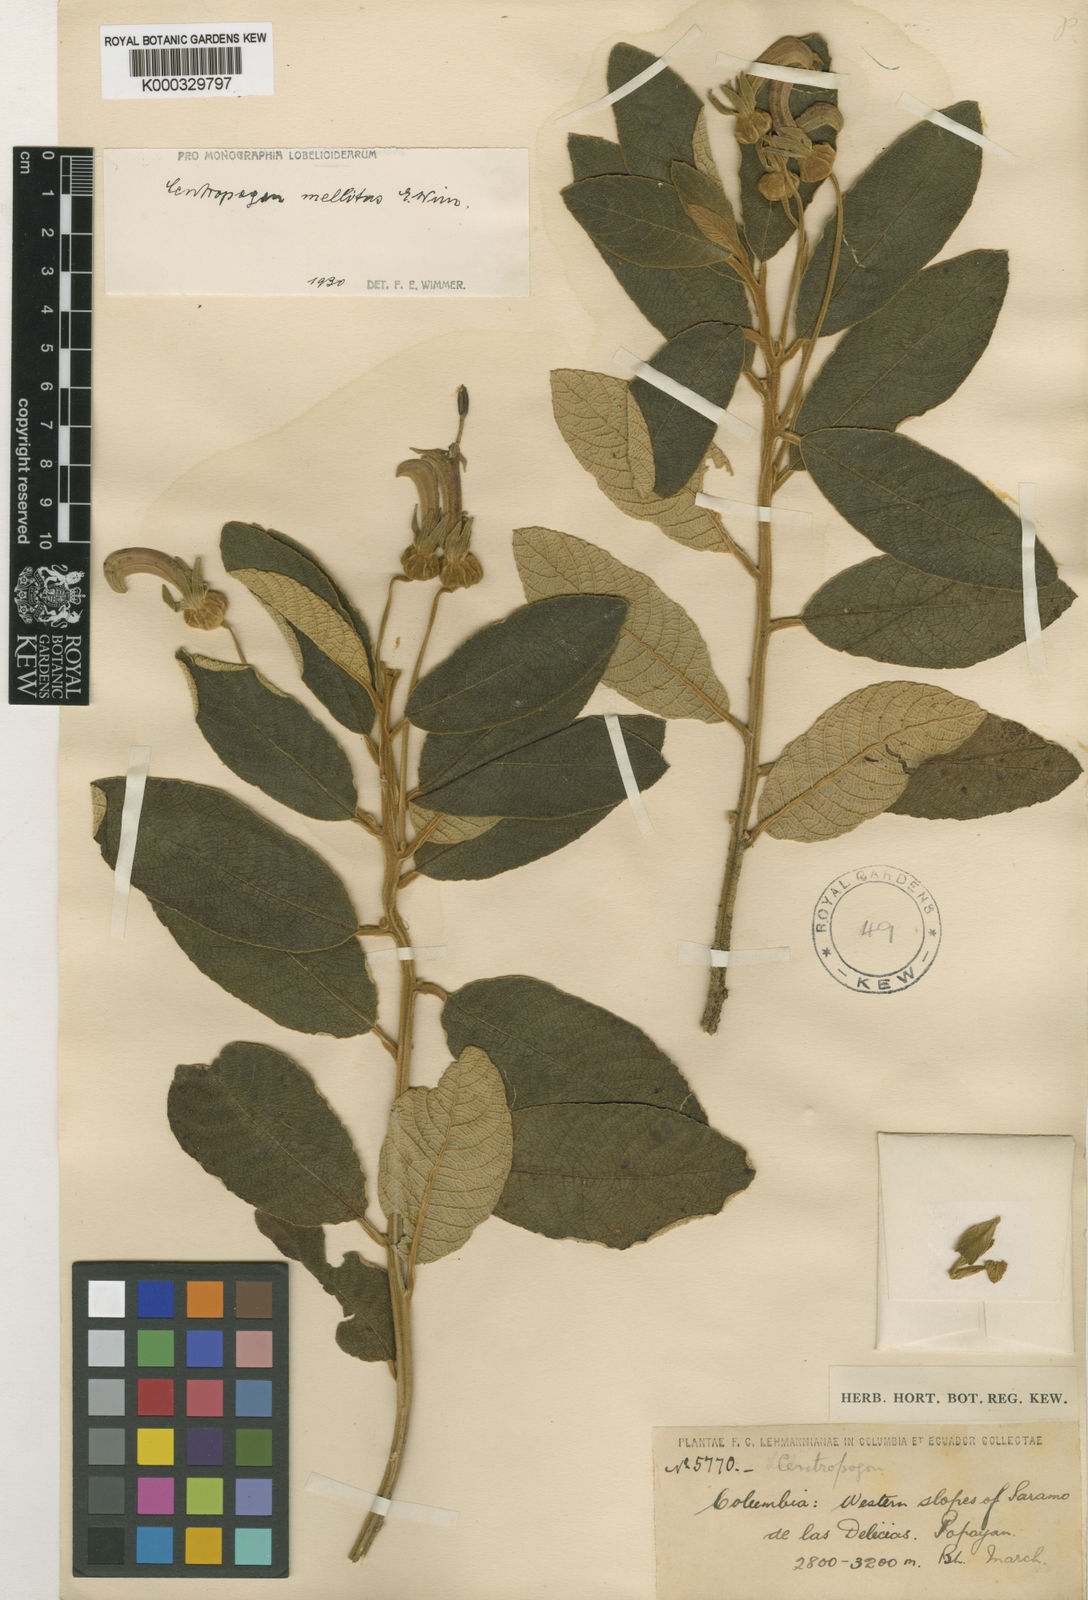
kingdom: Plantae
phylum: Tracheophyta
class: Magnoliopsida
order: Asterales
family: Campanulaceae
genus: Centropogon
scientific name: Centropogon mellitus
